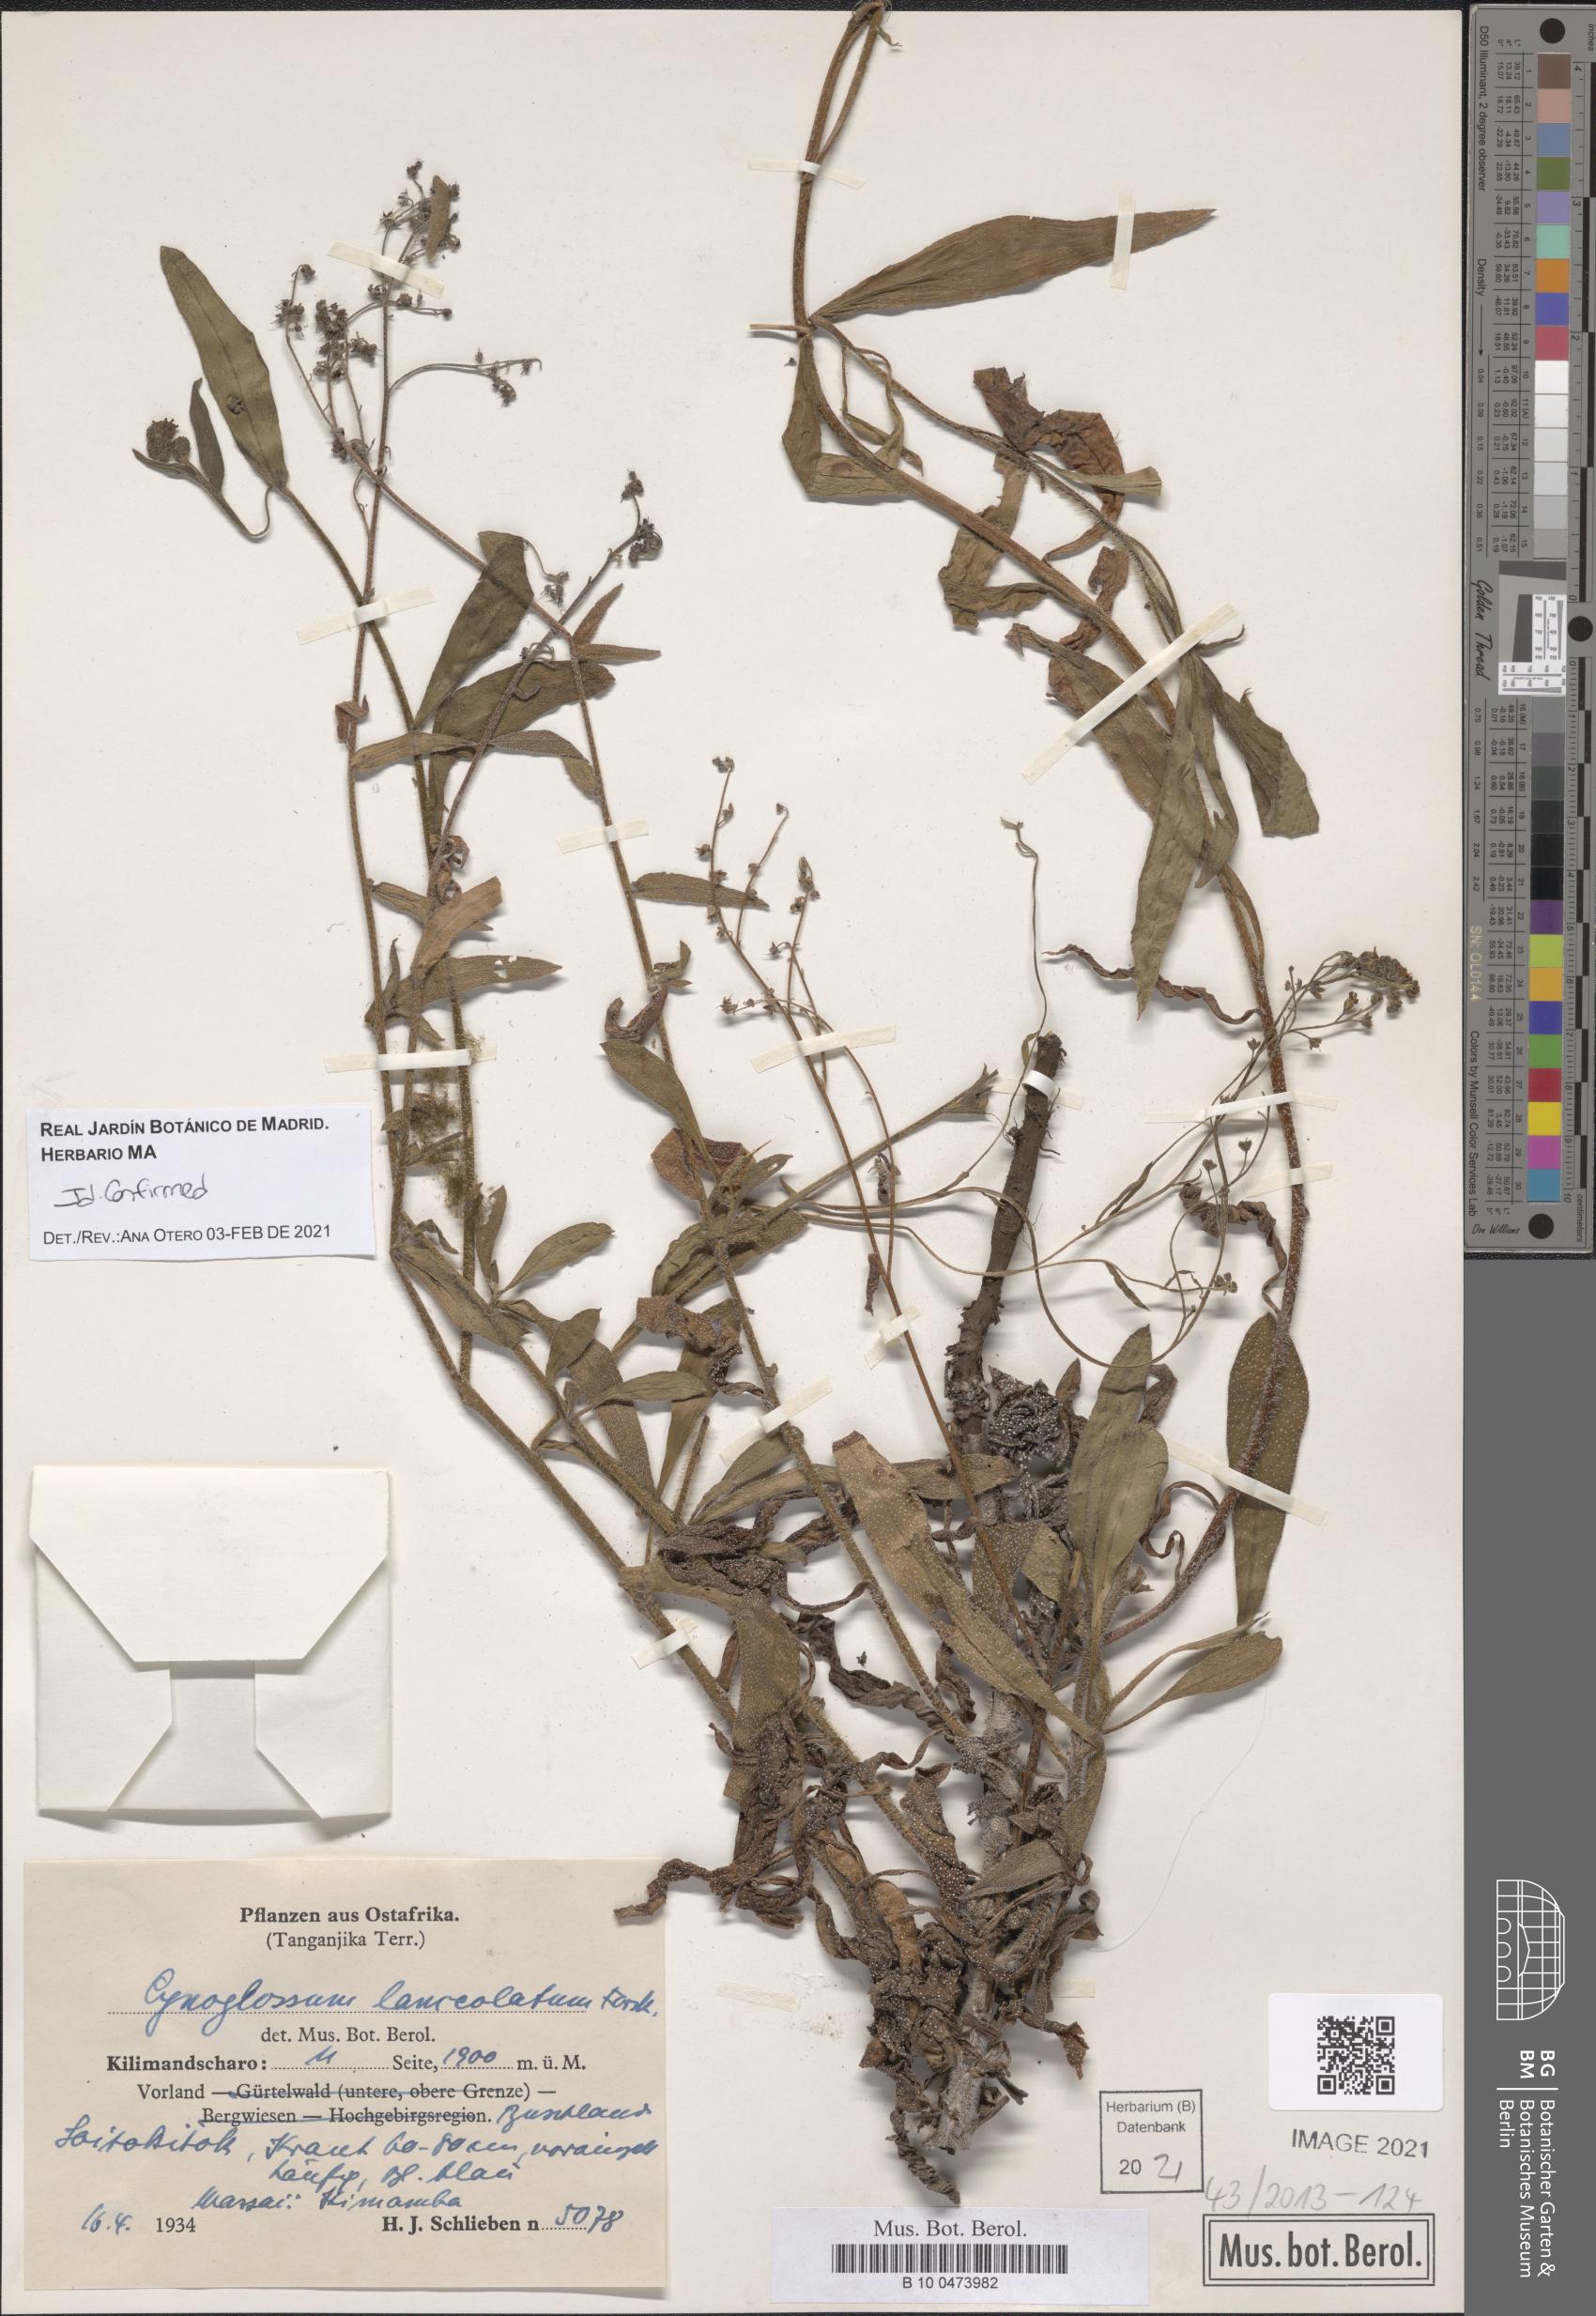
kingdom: Plantae
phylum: Tracheophyta
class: Magnoliopsida
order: Boraginales
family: Boraginaceae
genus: Paracynoglossum
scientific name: Paracynoglossum lanceolatum
